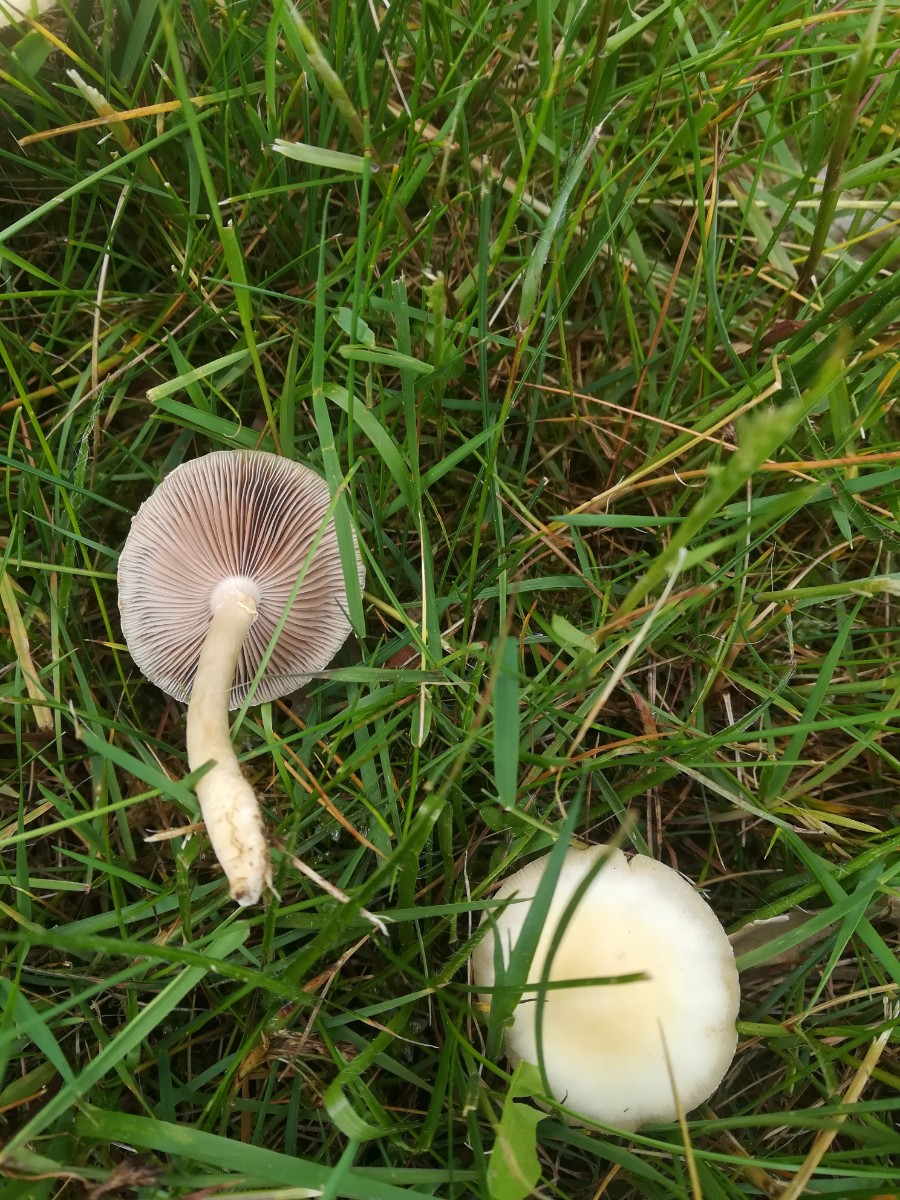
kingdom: Fungi
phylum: Basidiomycota
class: Agaricomycetes
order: Agaricales
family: Strophariaceae
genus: Agrocybe
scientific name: Agrocybe praecox
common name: tidlig agerhat
